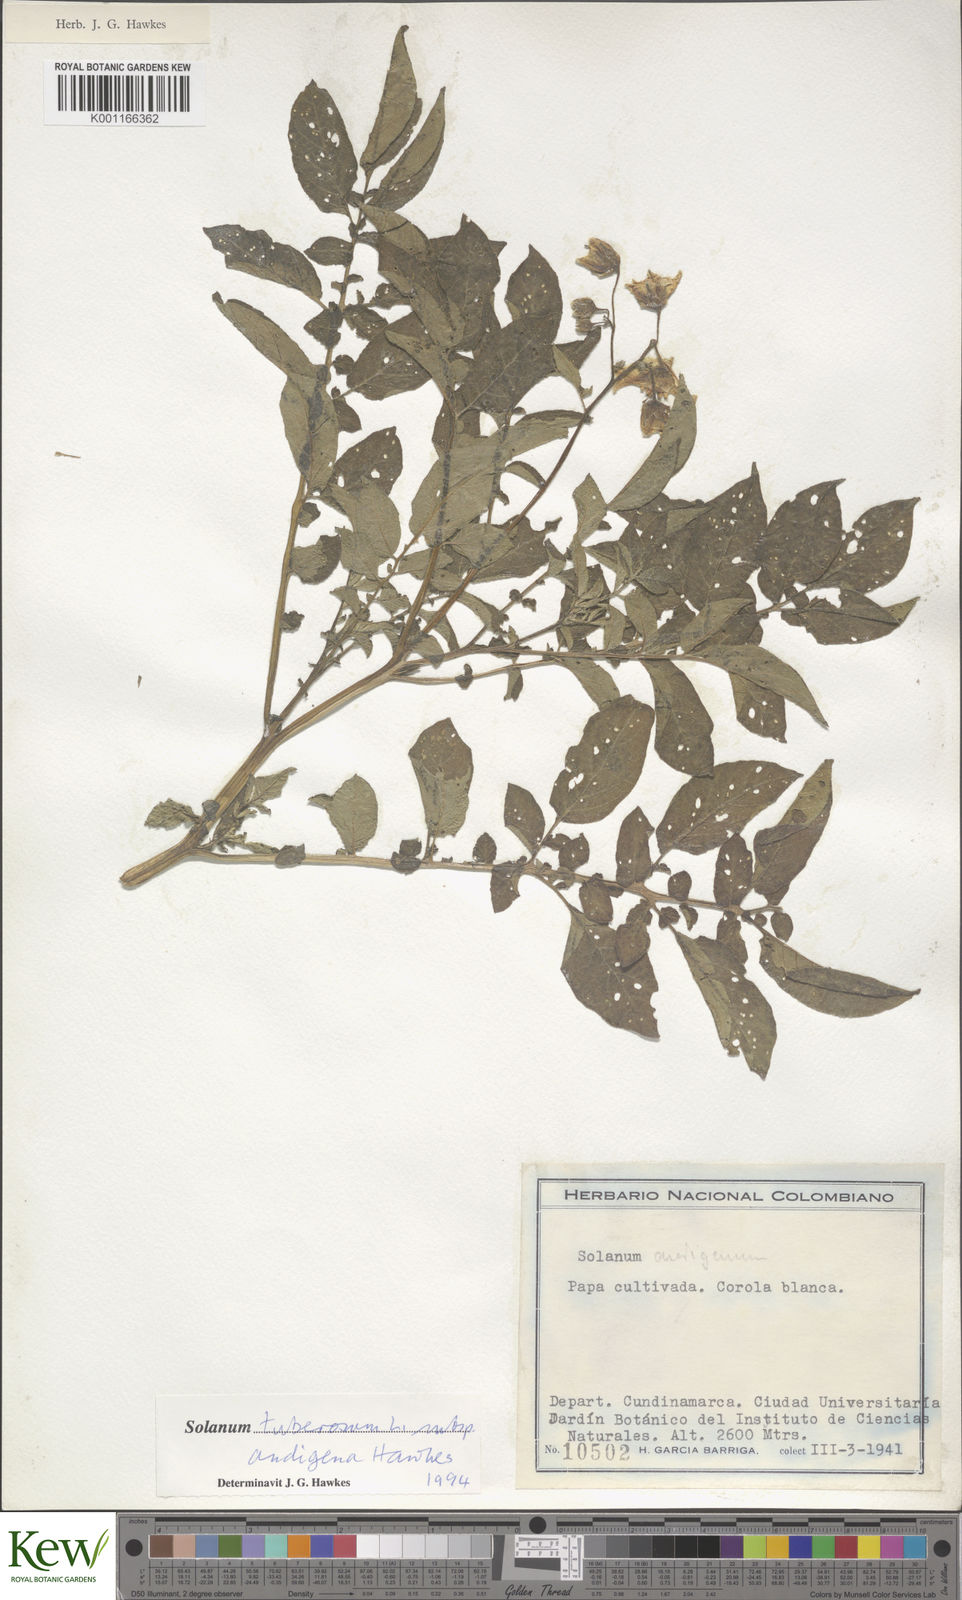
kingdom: Plantae
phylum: Tracheophyta
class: Magnoliopsida
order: Solanales
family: Solanaceae
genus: Solanum
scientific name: Solanum tuberosum
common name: Potato
